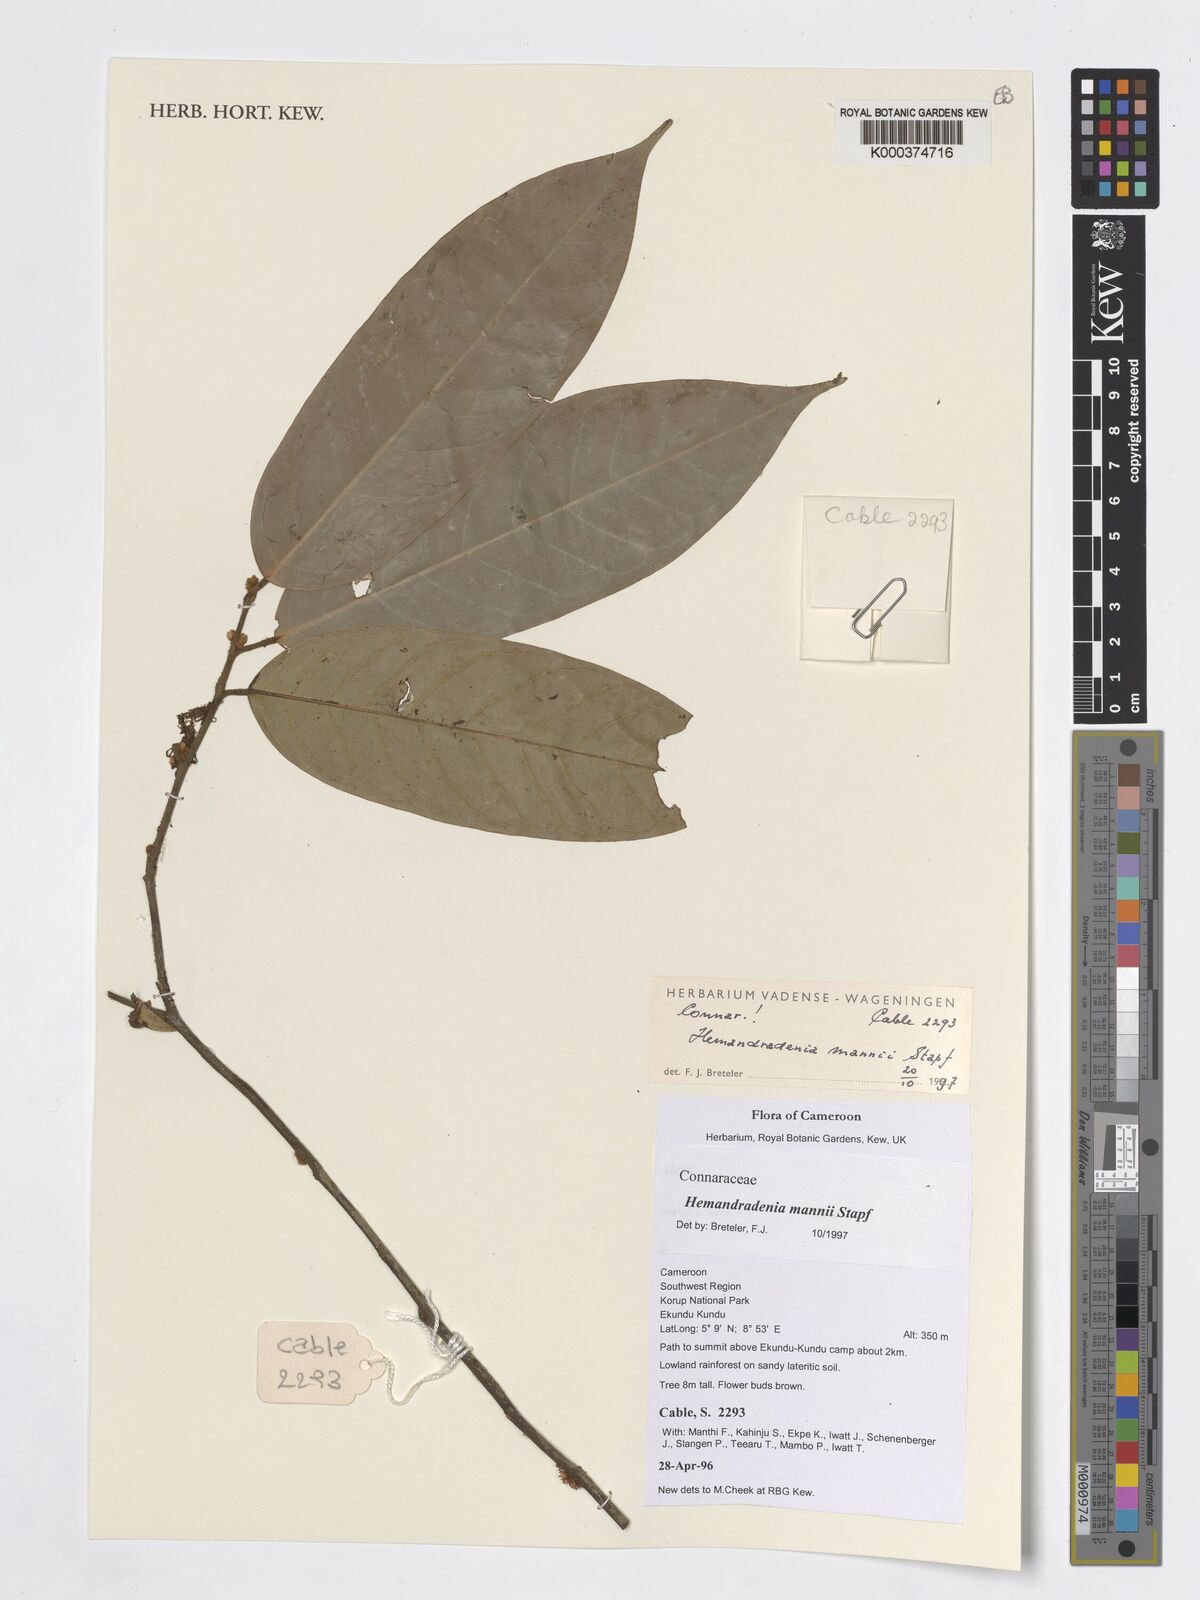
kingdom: Plantae
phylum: Tracheophyta
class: Magnoliopsida
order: Oxalidales
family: Connaraceae
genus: Hemandradenia
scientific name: Hemandradenia mannii
